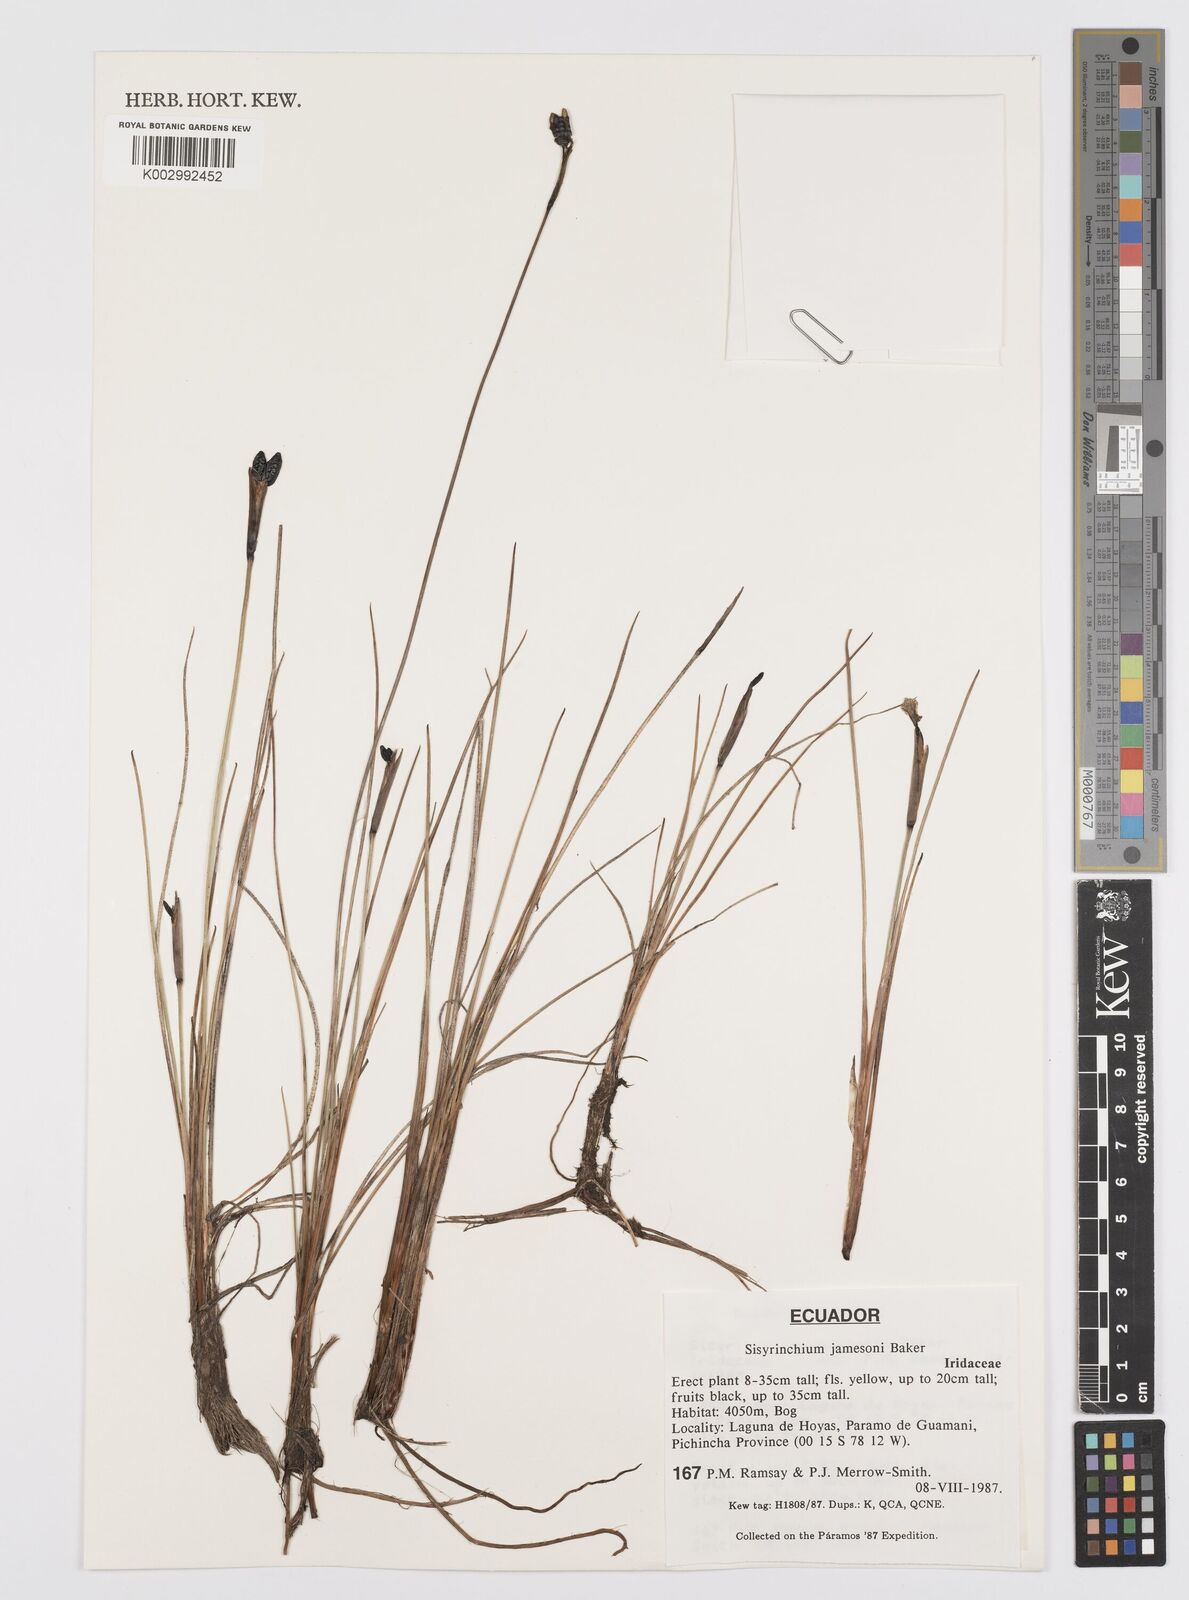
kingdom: Plantae
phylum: Tracheophyta
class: Liliopsida
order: Asparagales
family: Iridaceae
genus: Sisyrinchium
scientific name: Sisyrinchium jamesonii
